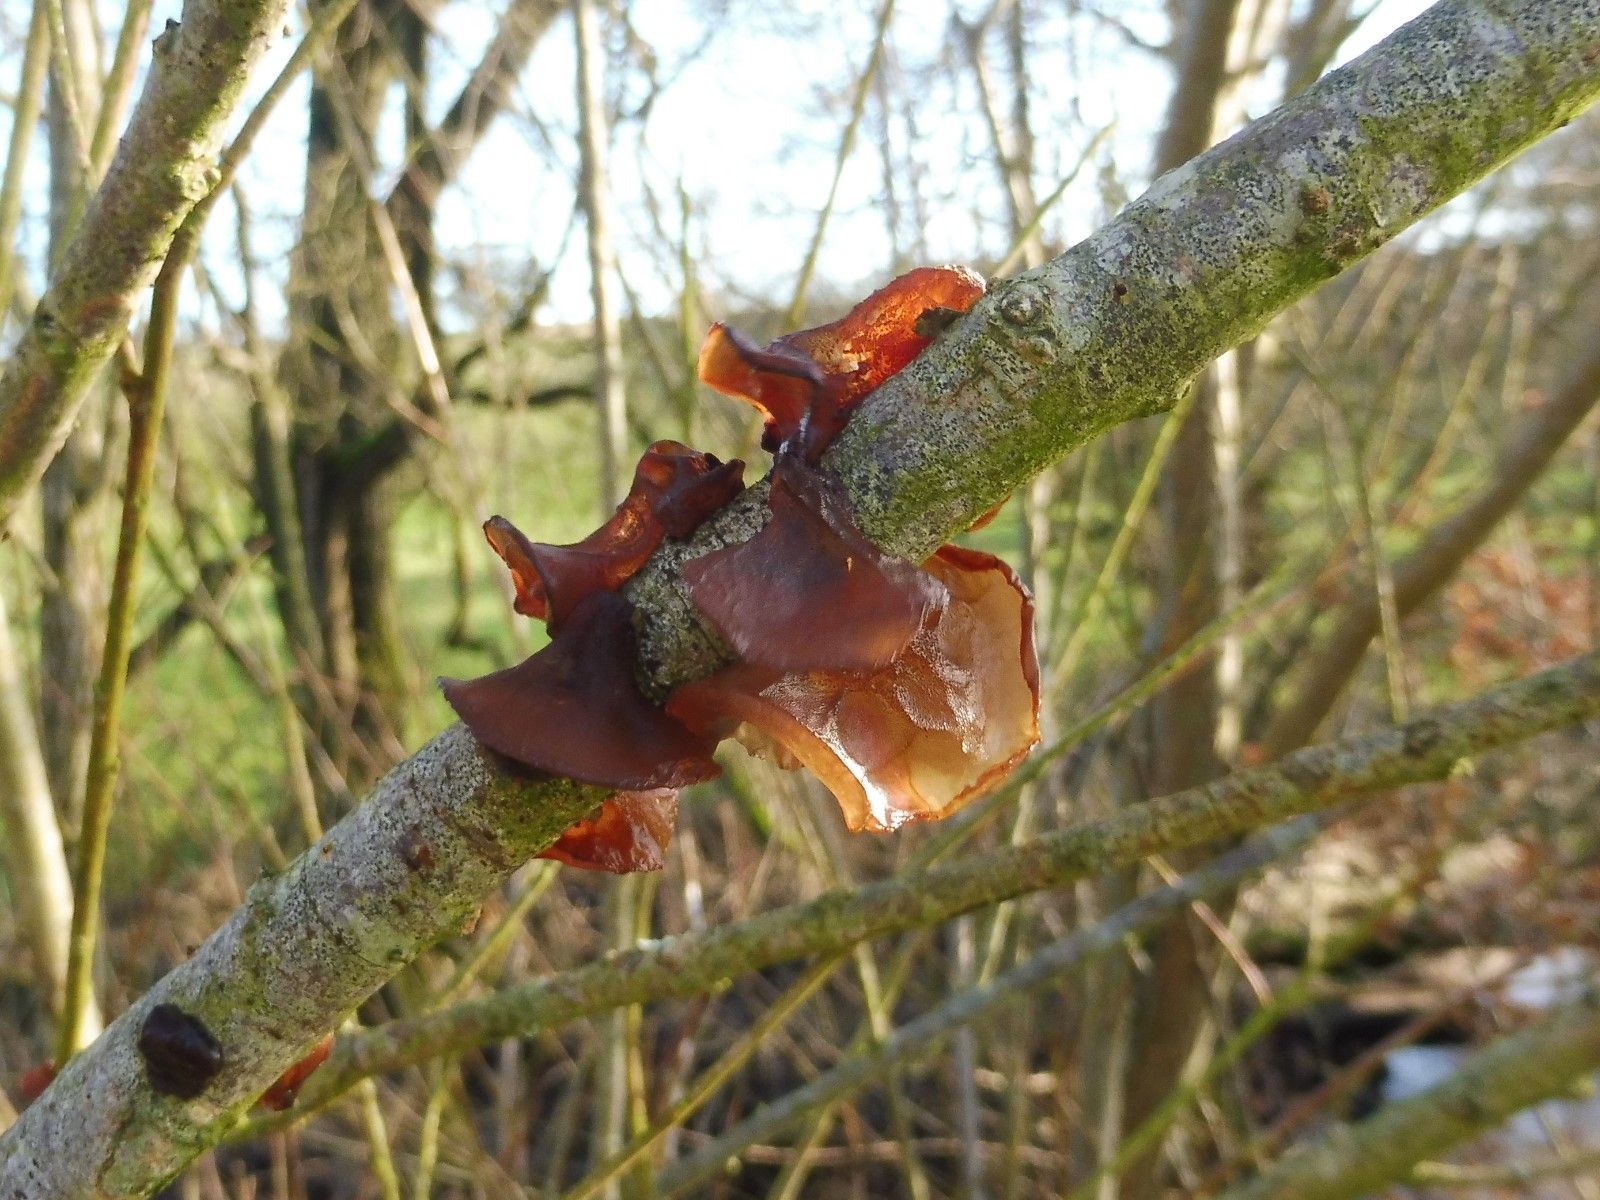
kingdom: Fungi
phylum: Basidiomycota
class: Agaricomycetes
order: Auriculariales
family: Auriculariaceae
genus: Exidia
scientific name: Exidia recisa
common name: pile-bævretop
